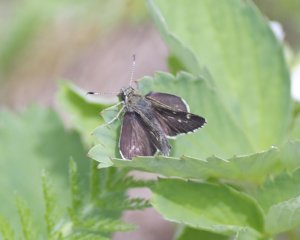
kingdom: Animalia
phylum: Arthropoda
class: Insecta
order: Lepidoptera
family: Hesperiidae
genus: Mastor
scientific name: Mastor hegon
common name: Pepper and Salt Skipper
